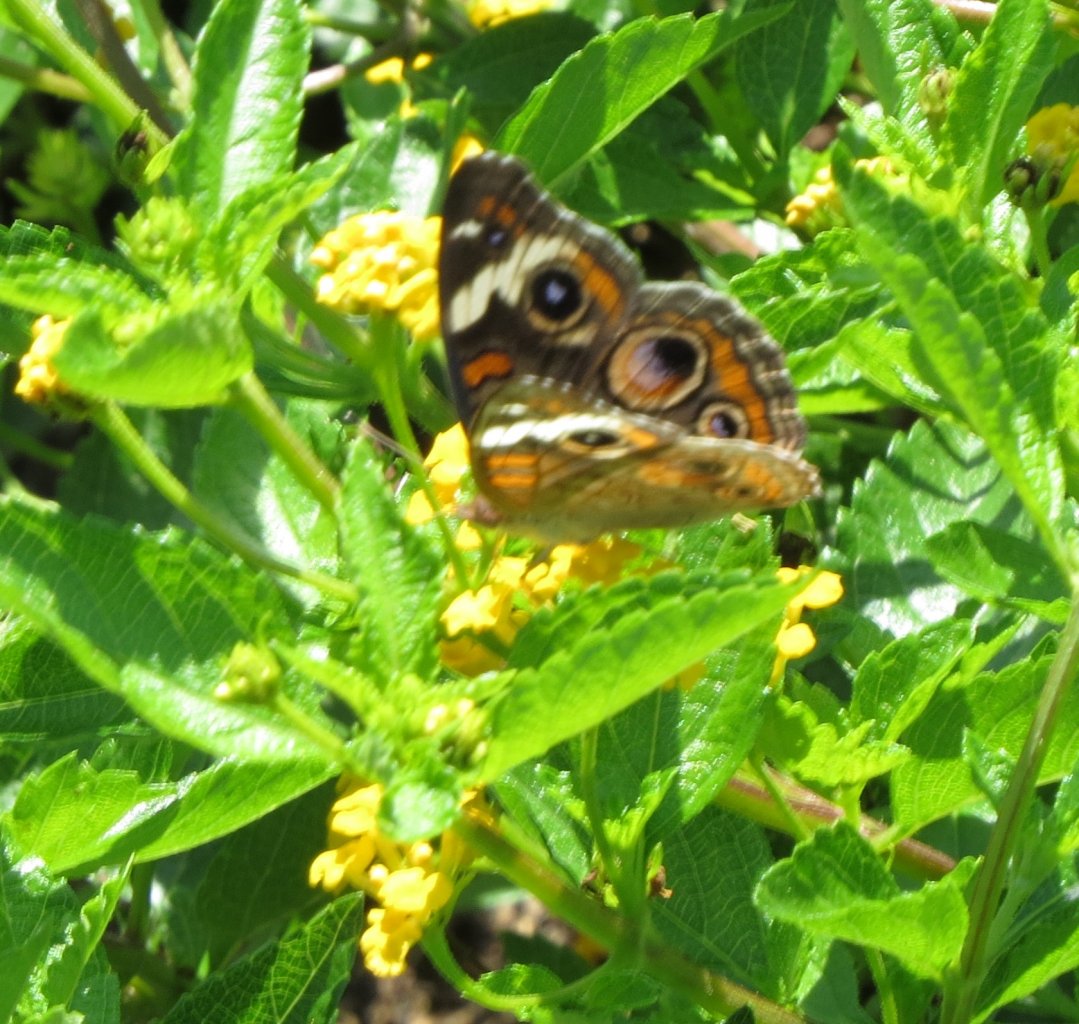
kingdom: Animalia
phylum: Arthropoda
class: Insecta
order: Lepidoptera
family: Nymphalidae
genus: Junonia
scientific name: Junonia coenia
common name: Common Buckeye
